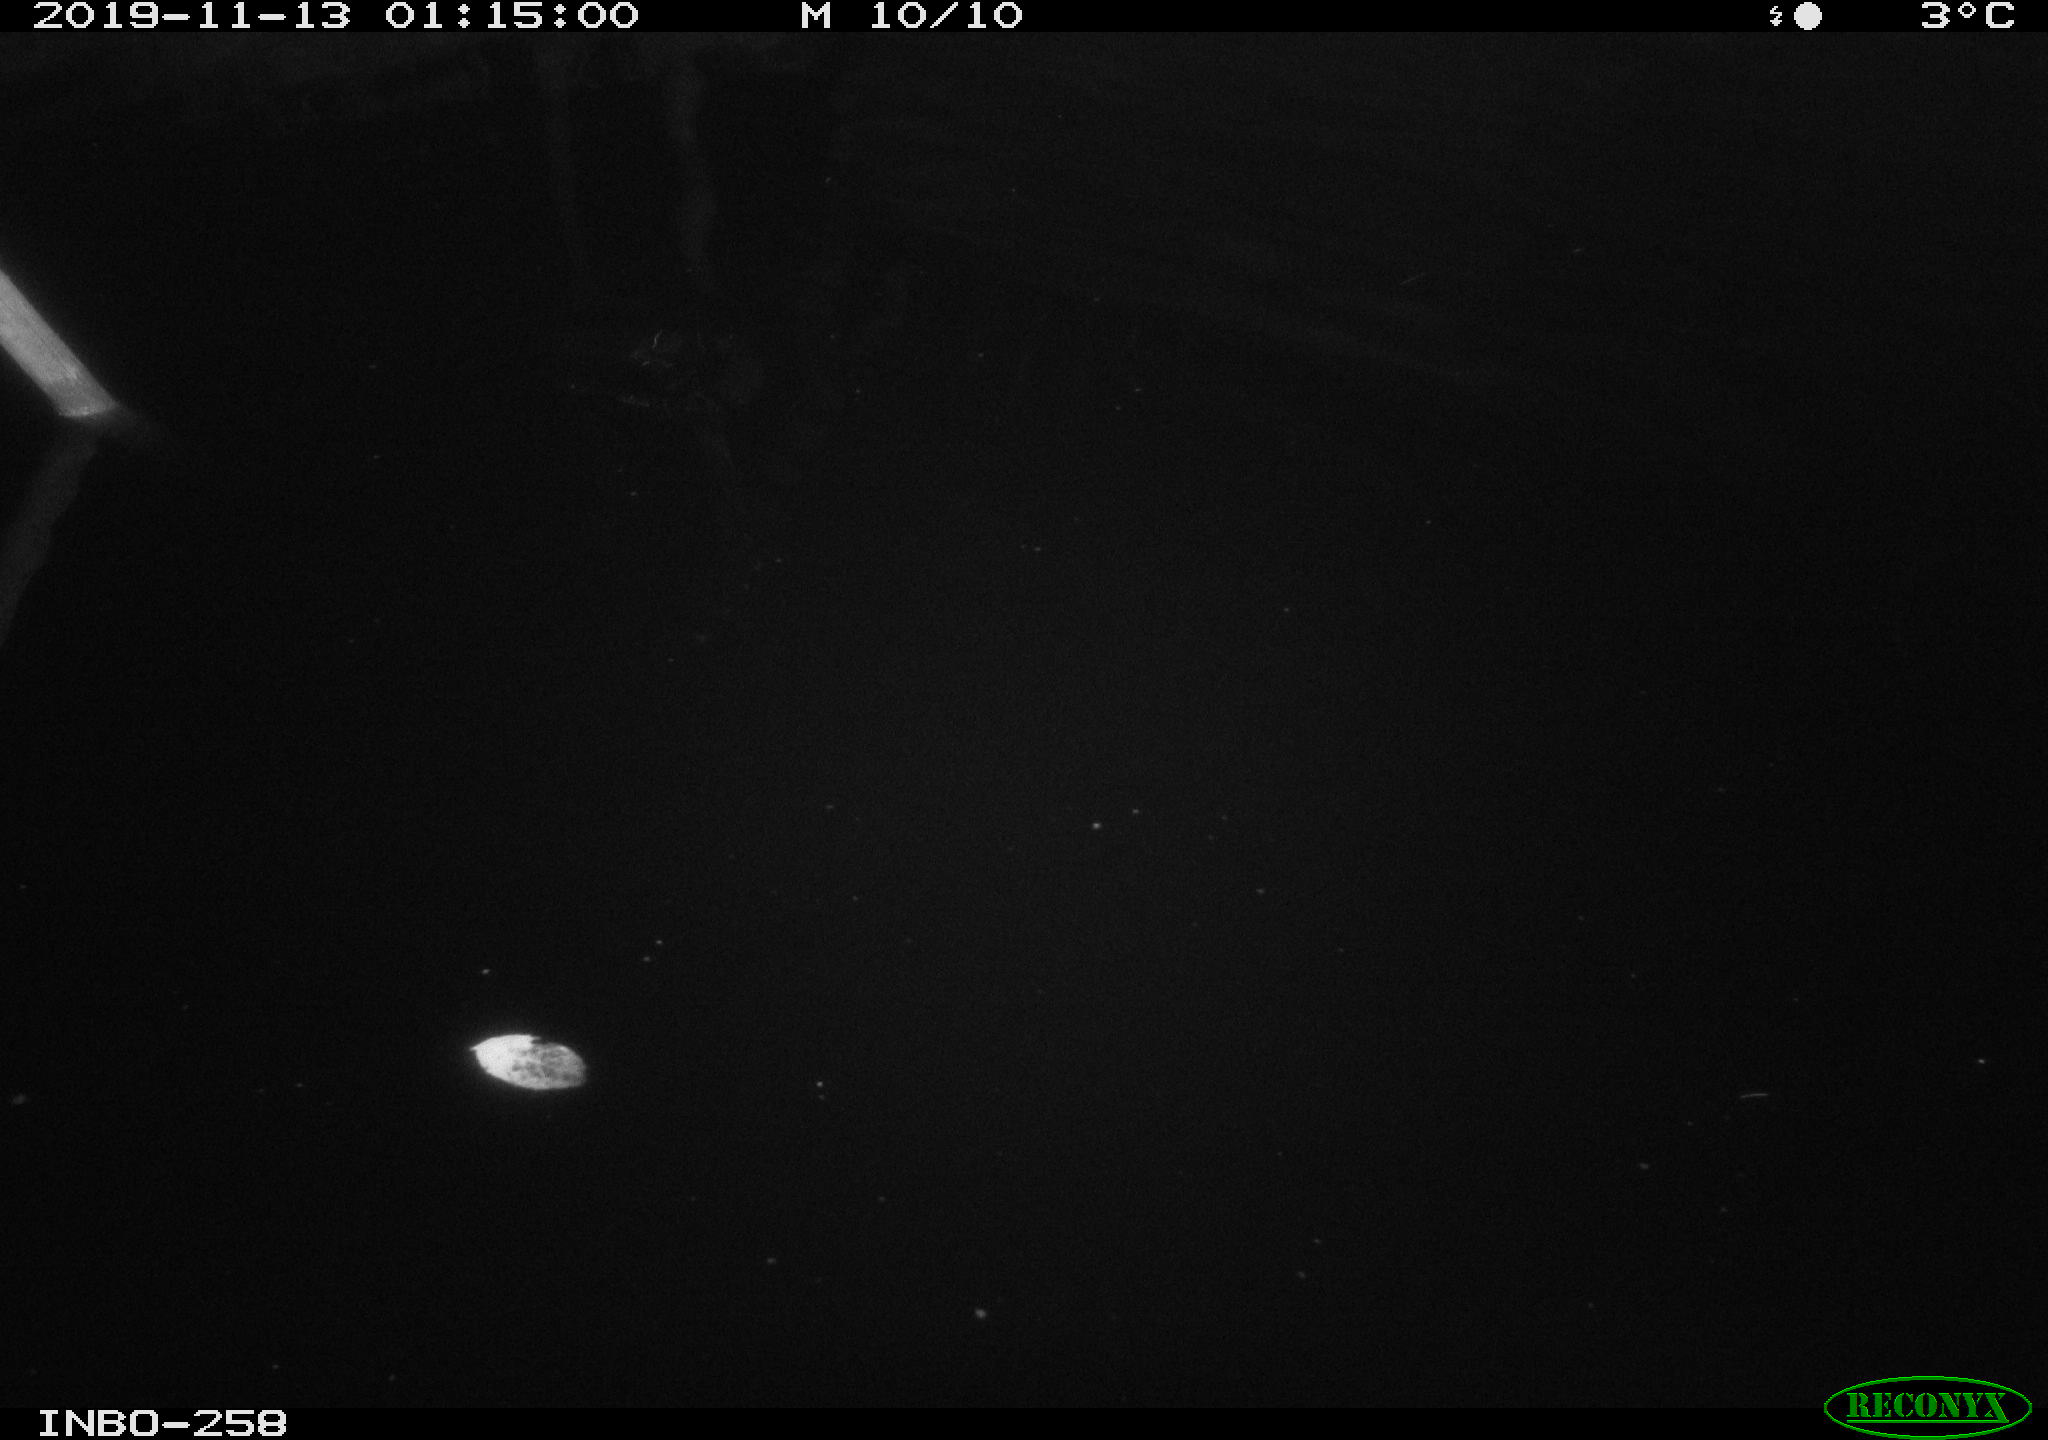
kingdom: Animalia
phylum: Chordata
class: Aves
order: Anseriformes
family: Anatidae
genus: Anas
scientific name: Anas platyrhynchos
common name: Mallard
